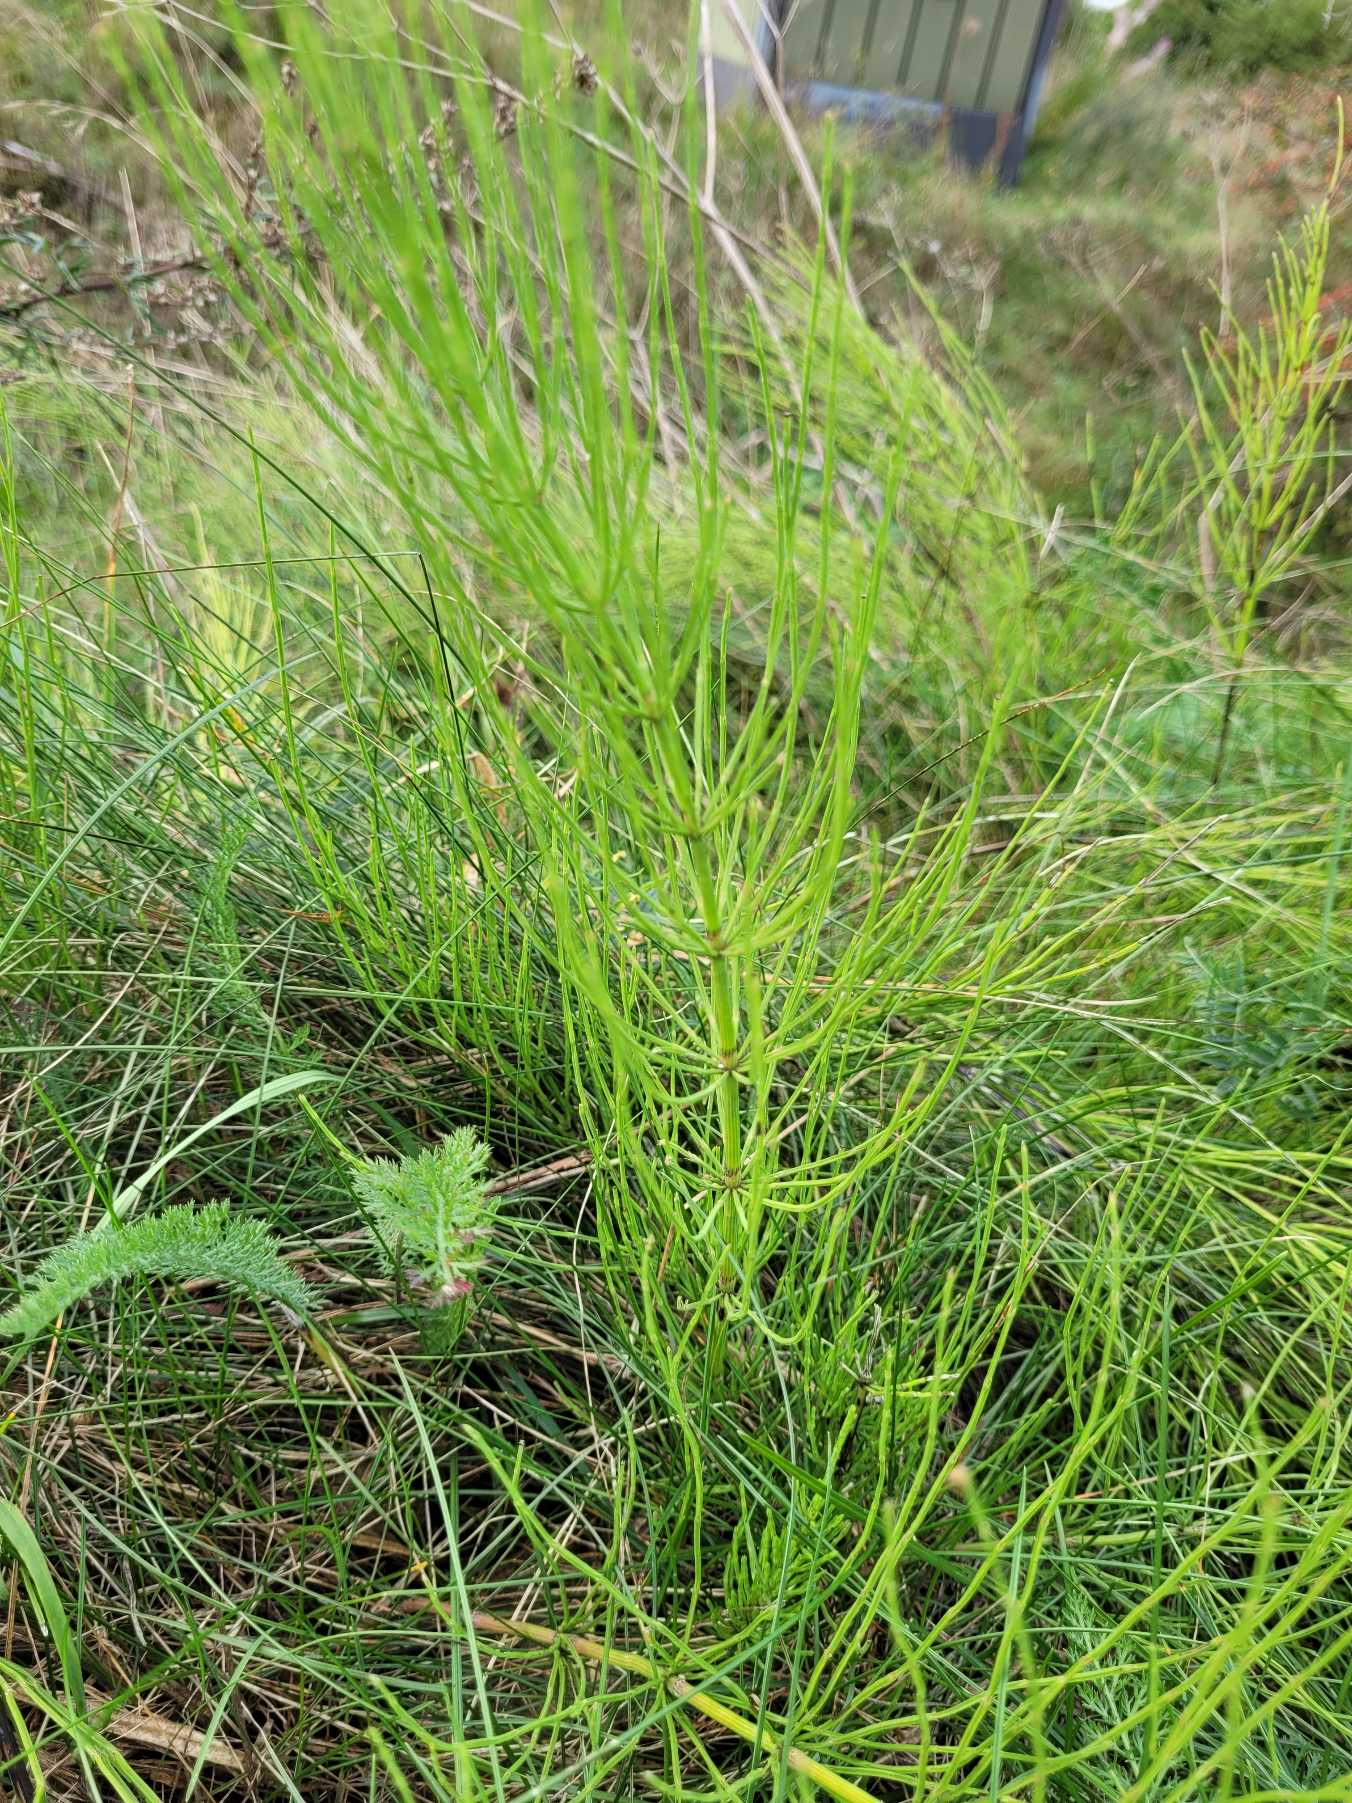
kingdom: Plantae
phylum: Tracheophyta
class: Polypodiopsida
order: Equisetales
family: Equisetaceae
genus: Equisetum
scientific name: Equisetum arvense
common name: Ager-padderok
